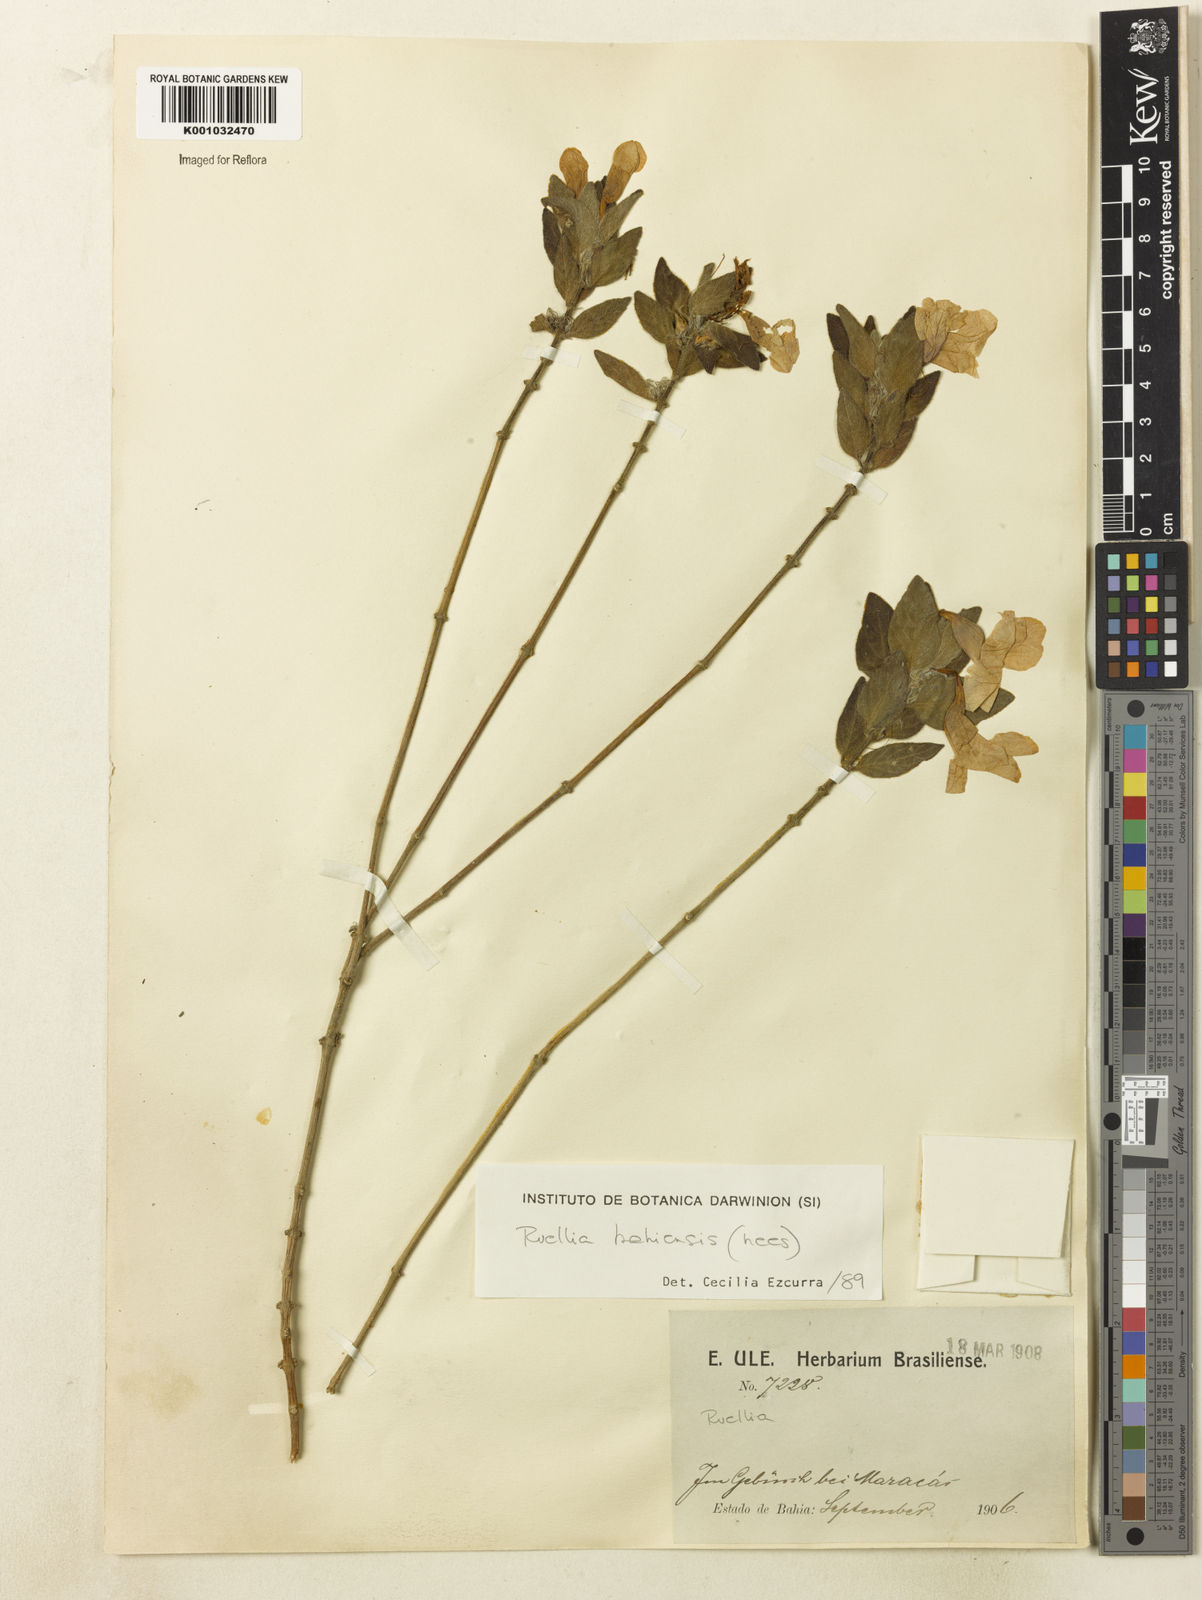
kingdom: Plantae
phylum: Tracheophyta
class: Magnoliopsida
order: Lamiales
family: Acanthaceae
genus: Ruellia
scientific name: Ruellia bahiensis
